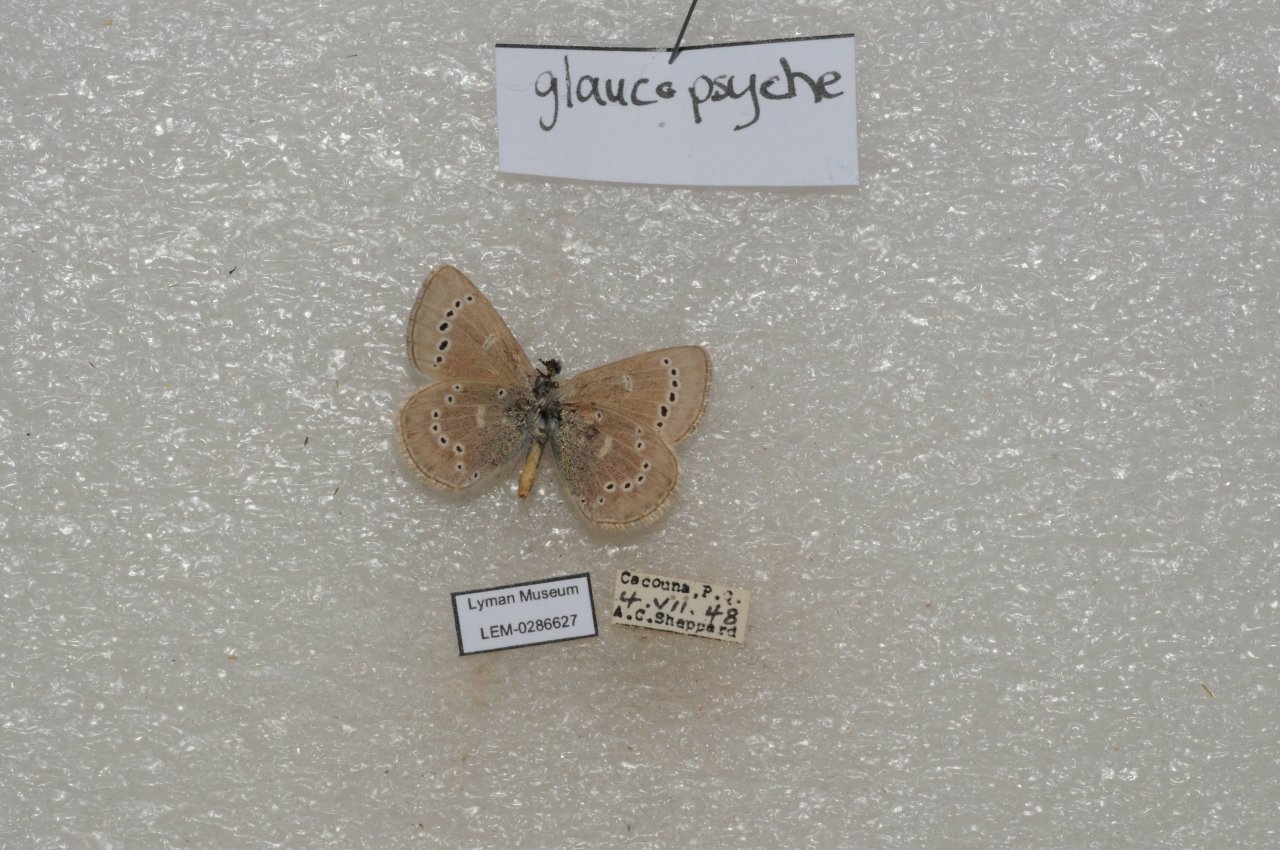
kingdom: Animalia
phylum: Arthropoda
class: Insecta
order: Lepidoptera
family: Lycaenidae
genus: Glaucopsyche
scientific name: Glaucopsyche lygdamus
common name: Silvery Blue
